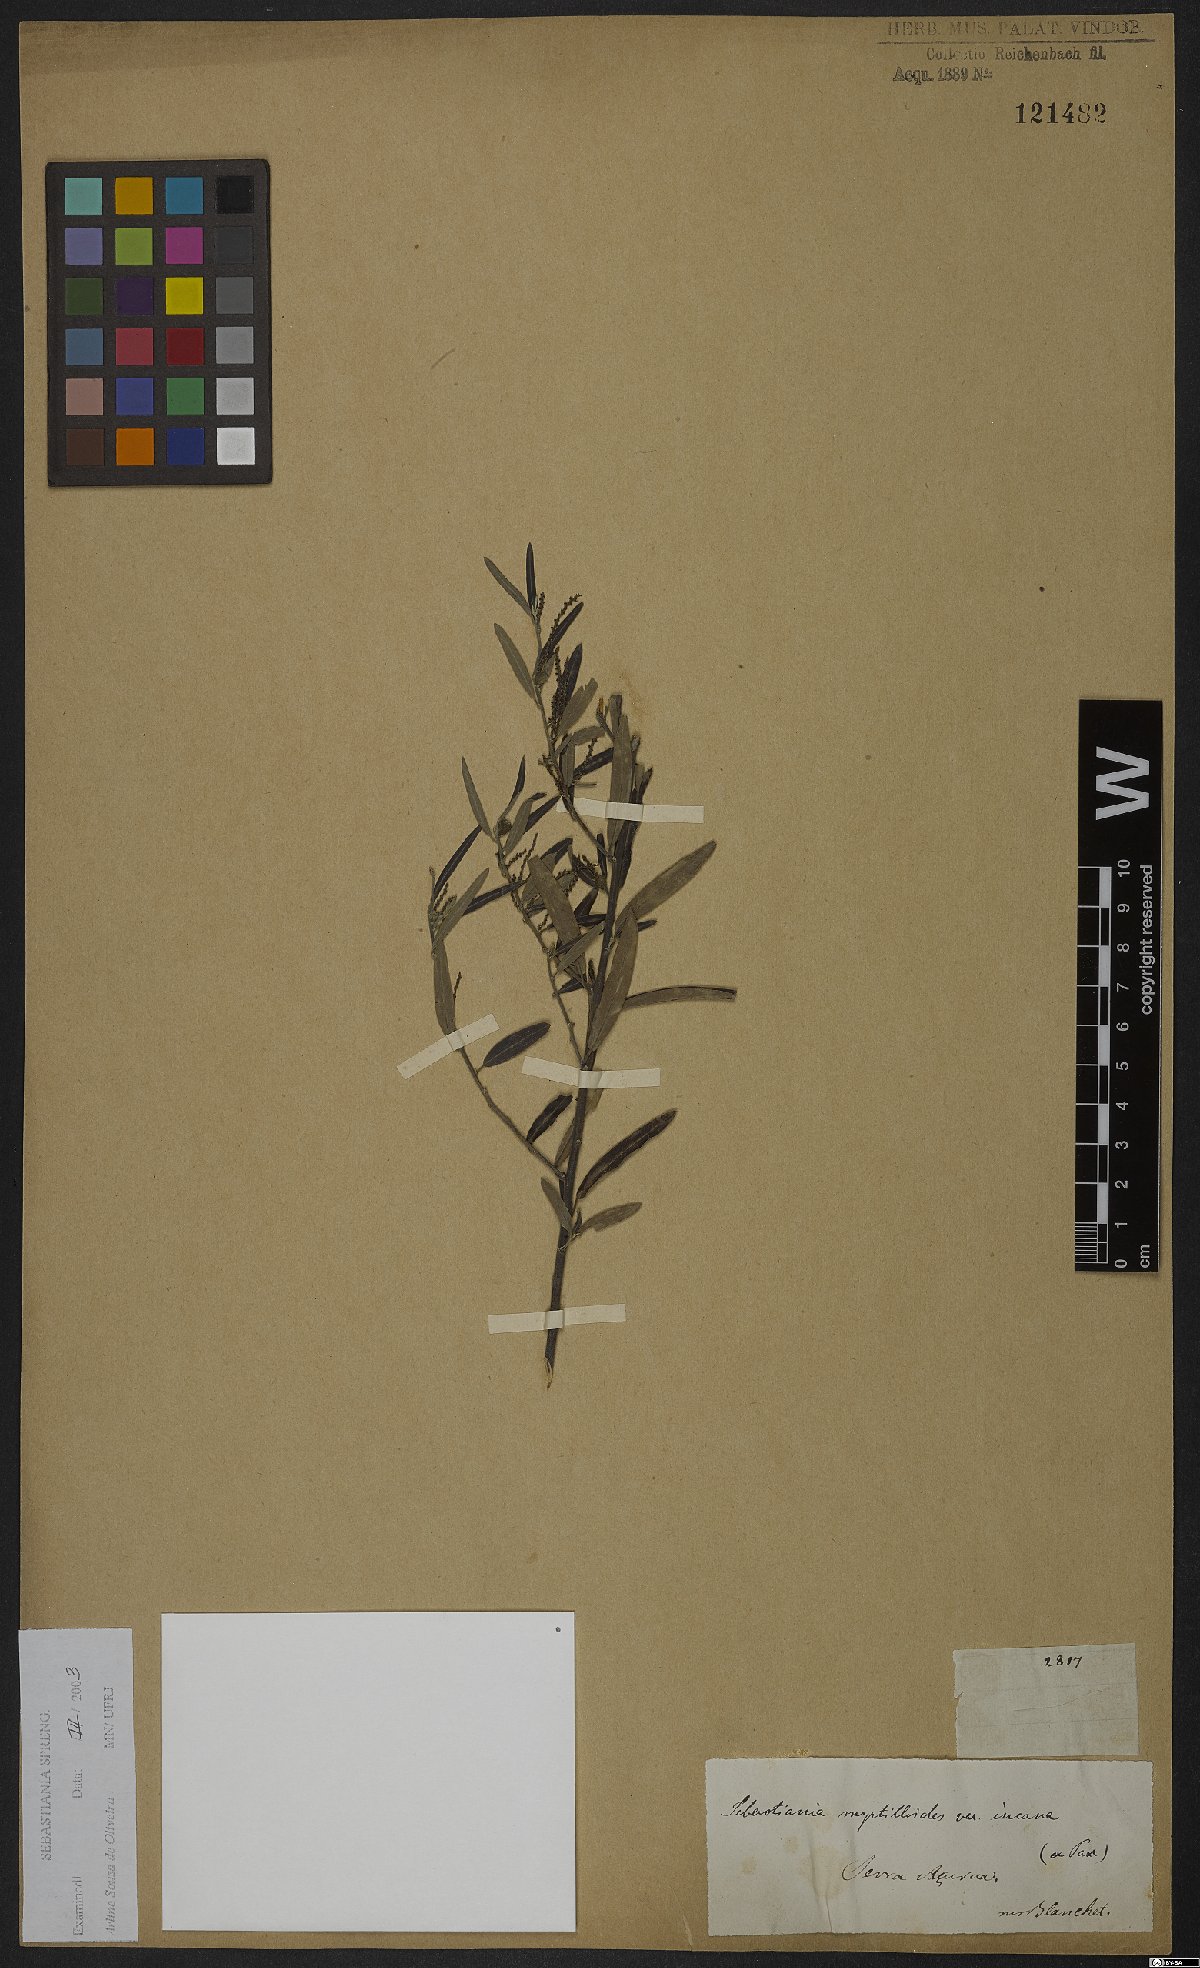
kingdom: Plantae
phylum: Tracheophyta
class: Magnoliopsida
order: Malpighiales
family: Euphorbiaceae
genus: Microstachys
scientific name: Microstachys daphnoides
